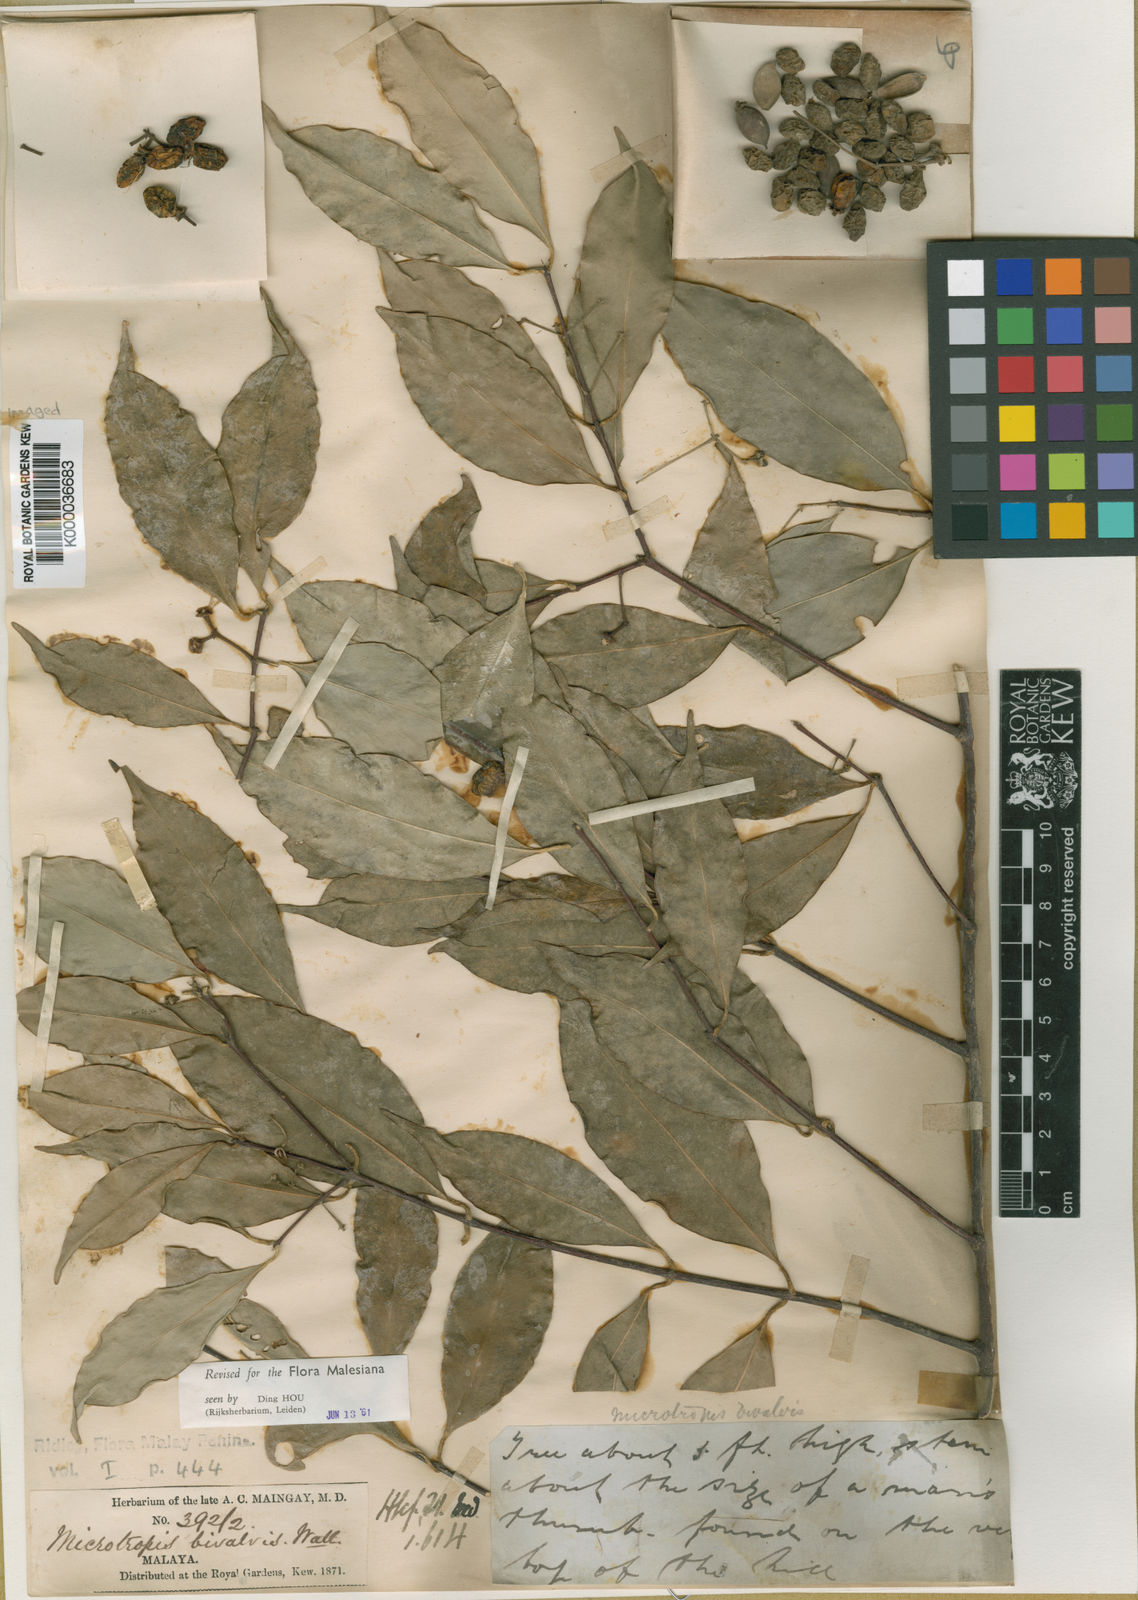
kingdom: Plantae
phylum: Tracheophyta
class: Magnoliopsida
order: Celastrales
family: Celastraceae
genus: Microtropis
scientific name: Microtropis bivalvis
